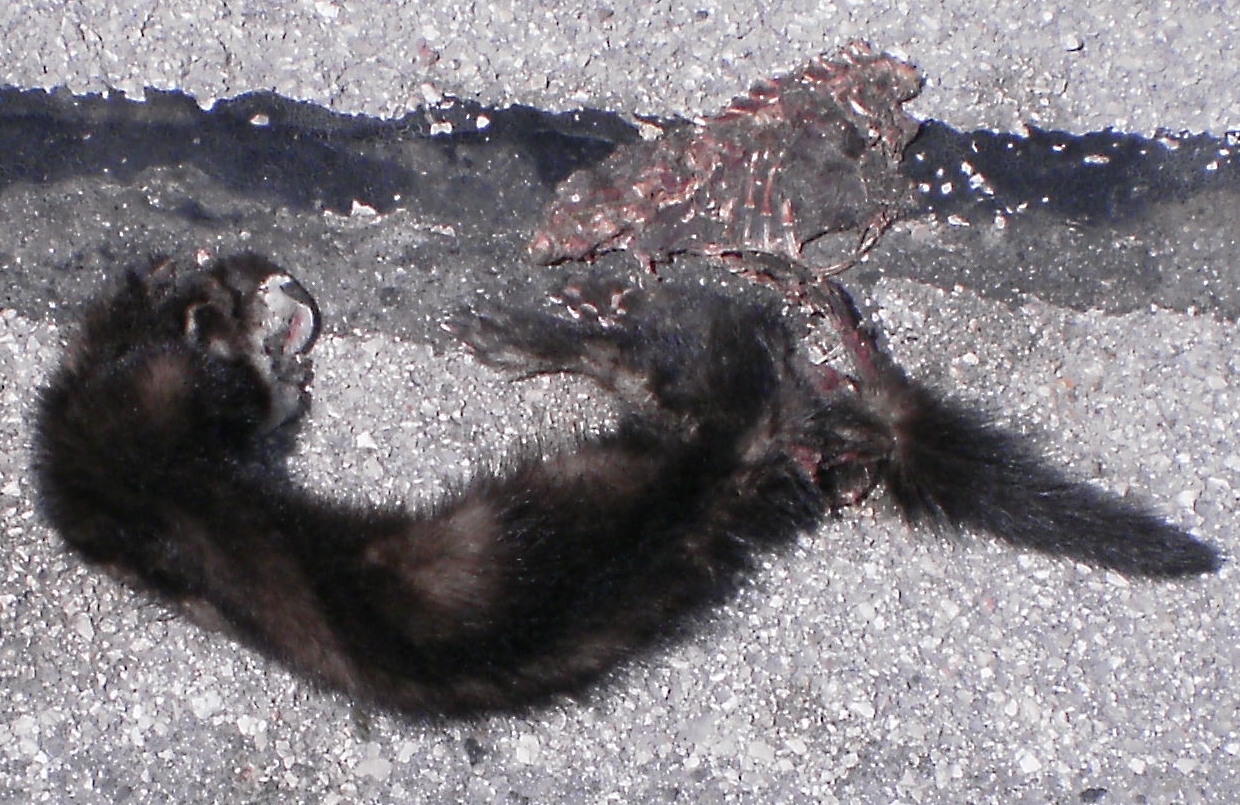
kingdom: Animalia
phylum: Chordata
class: Mammalia
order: Carnivora
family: Mustelidae
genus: Mustela
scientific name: Mustela vison
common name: American mink
